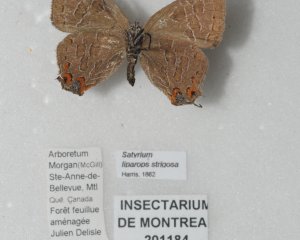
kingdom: Animalia
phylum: Arthropoda
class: Insecta
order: Lepidoptera
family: Lycaenidae
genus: Satyrium
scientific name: Satyrium liparops
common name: Striped Hairstreak
